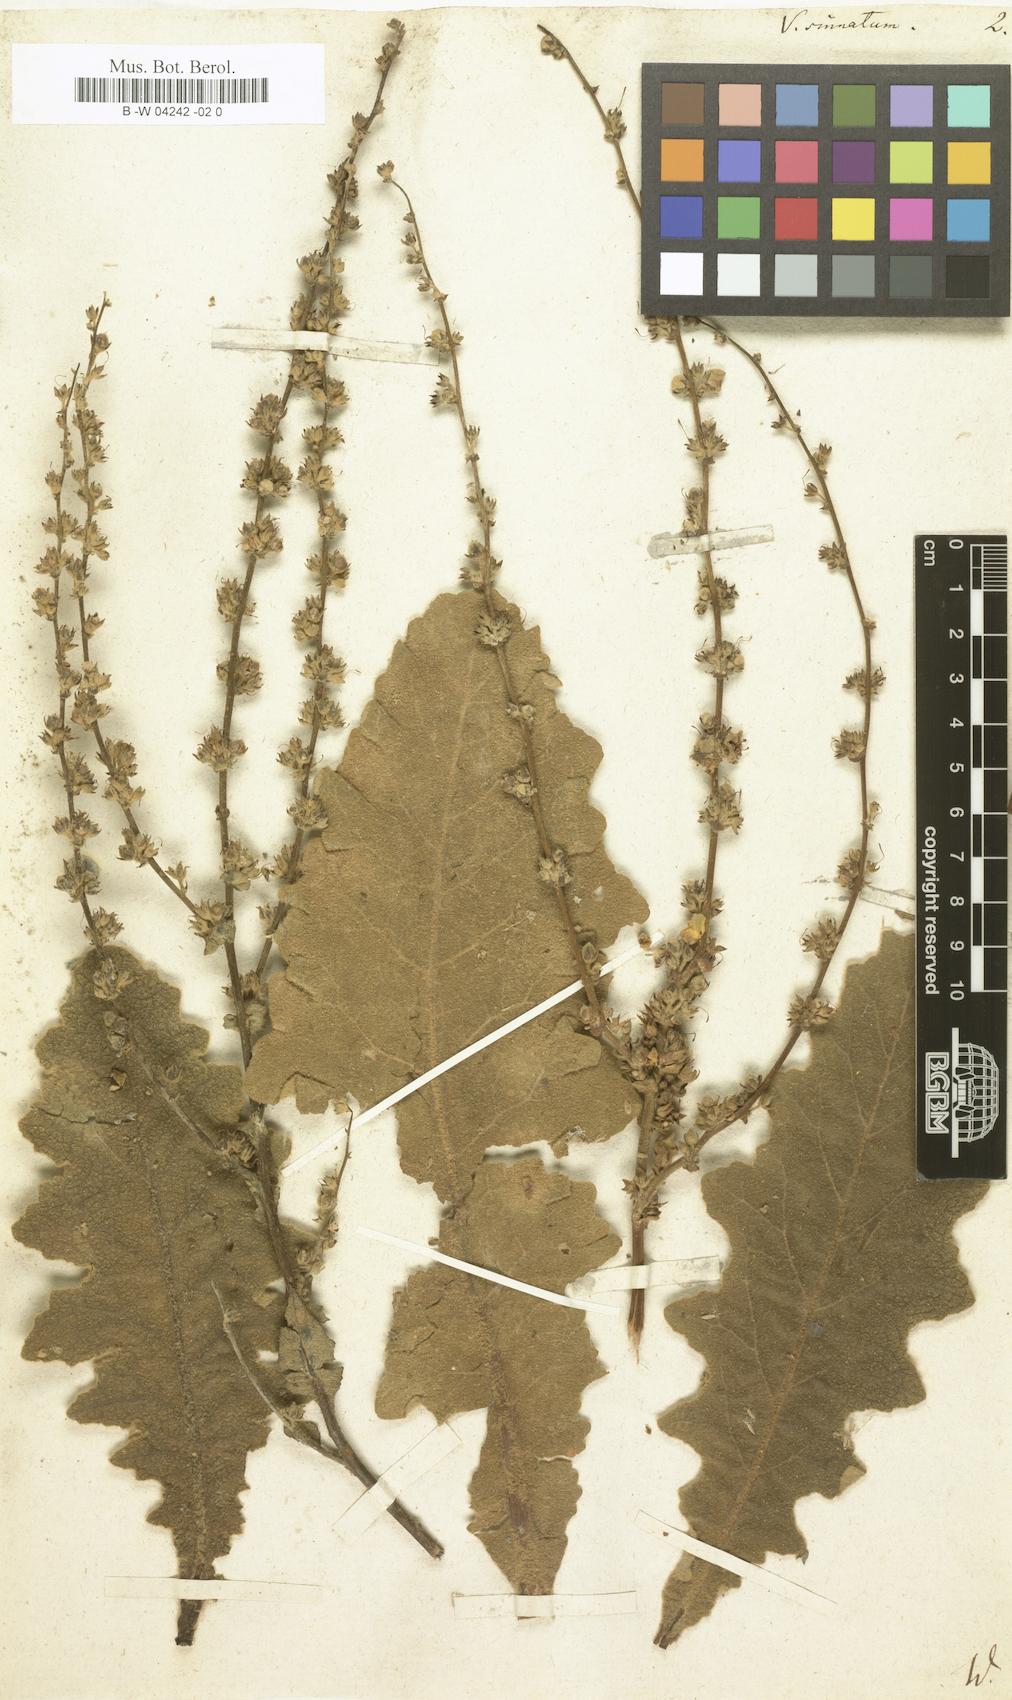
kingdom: Plantae
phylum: Tracheophyta
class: Magnoliopsida
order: Lamiales
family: Scrophulariaceae
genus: Verbascum
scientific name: Verbascum pinnatifidum
